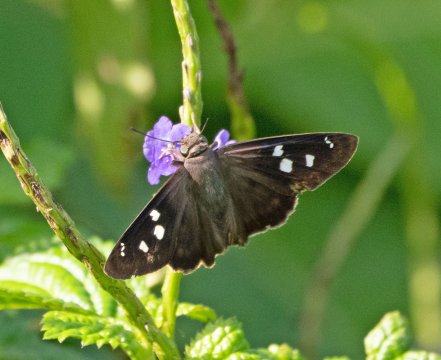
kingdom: Animalia
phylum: Arthropoda
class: Insecta
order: Lepidoptera
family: Hesperiidae
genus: Polygonus
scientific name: Polygonus leo
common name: Hammock Skipper
